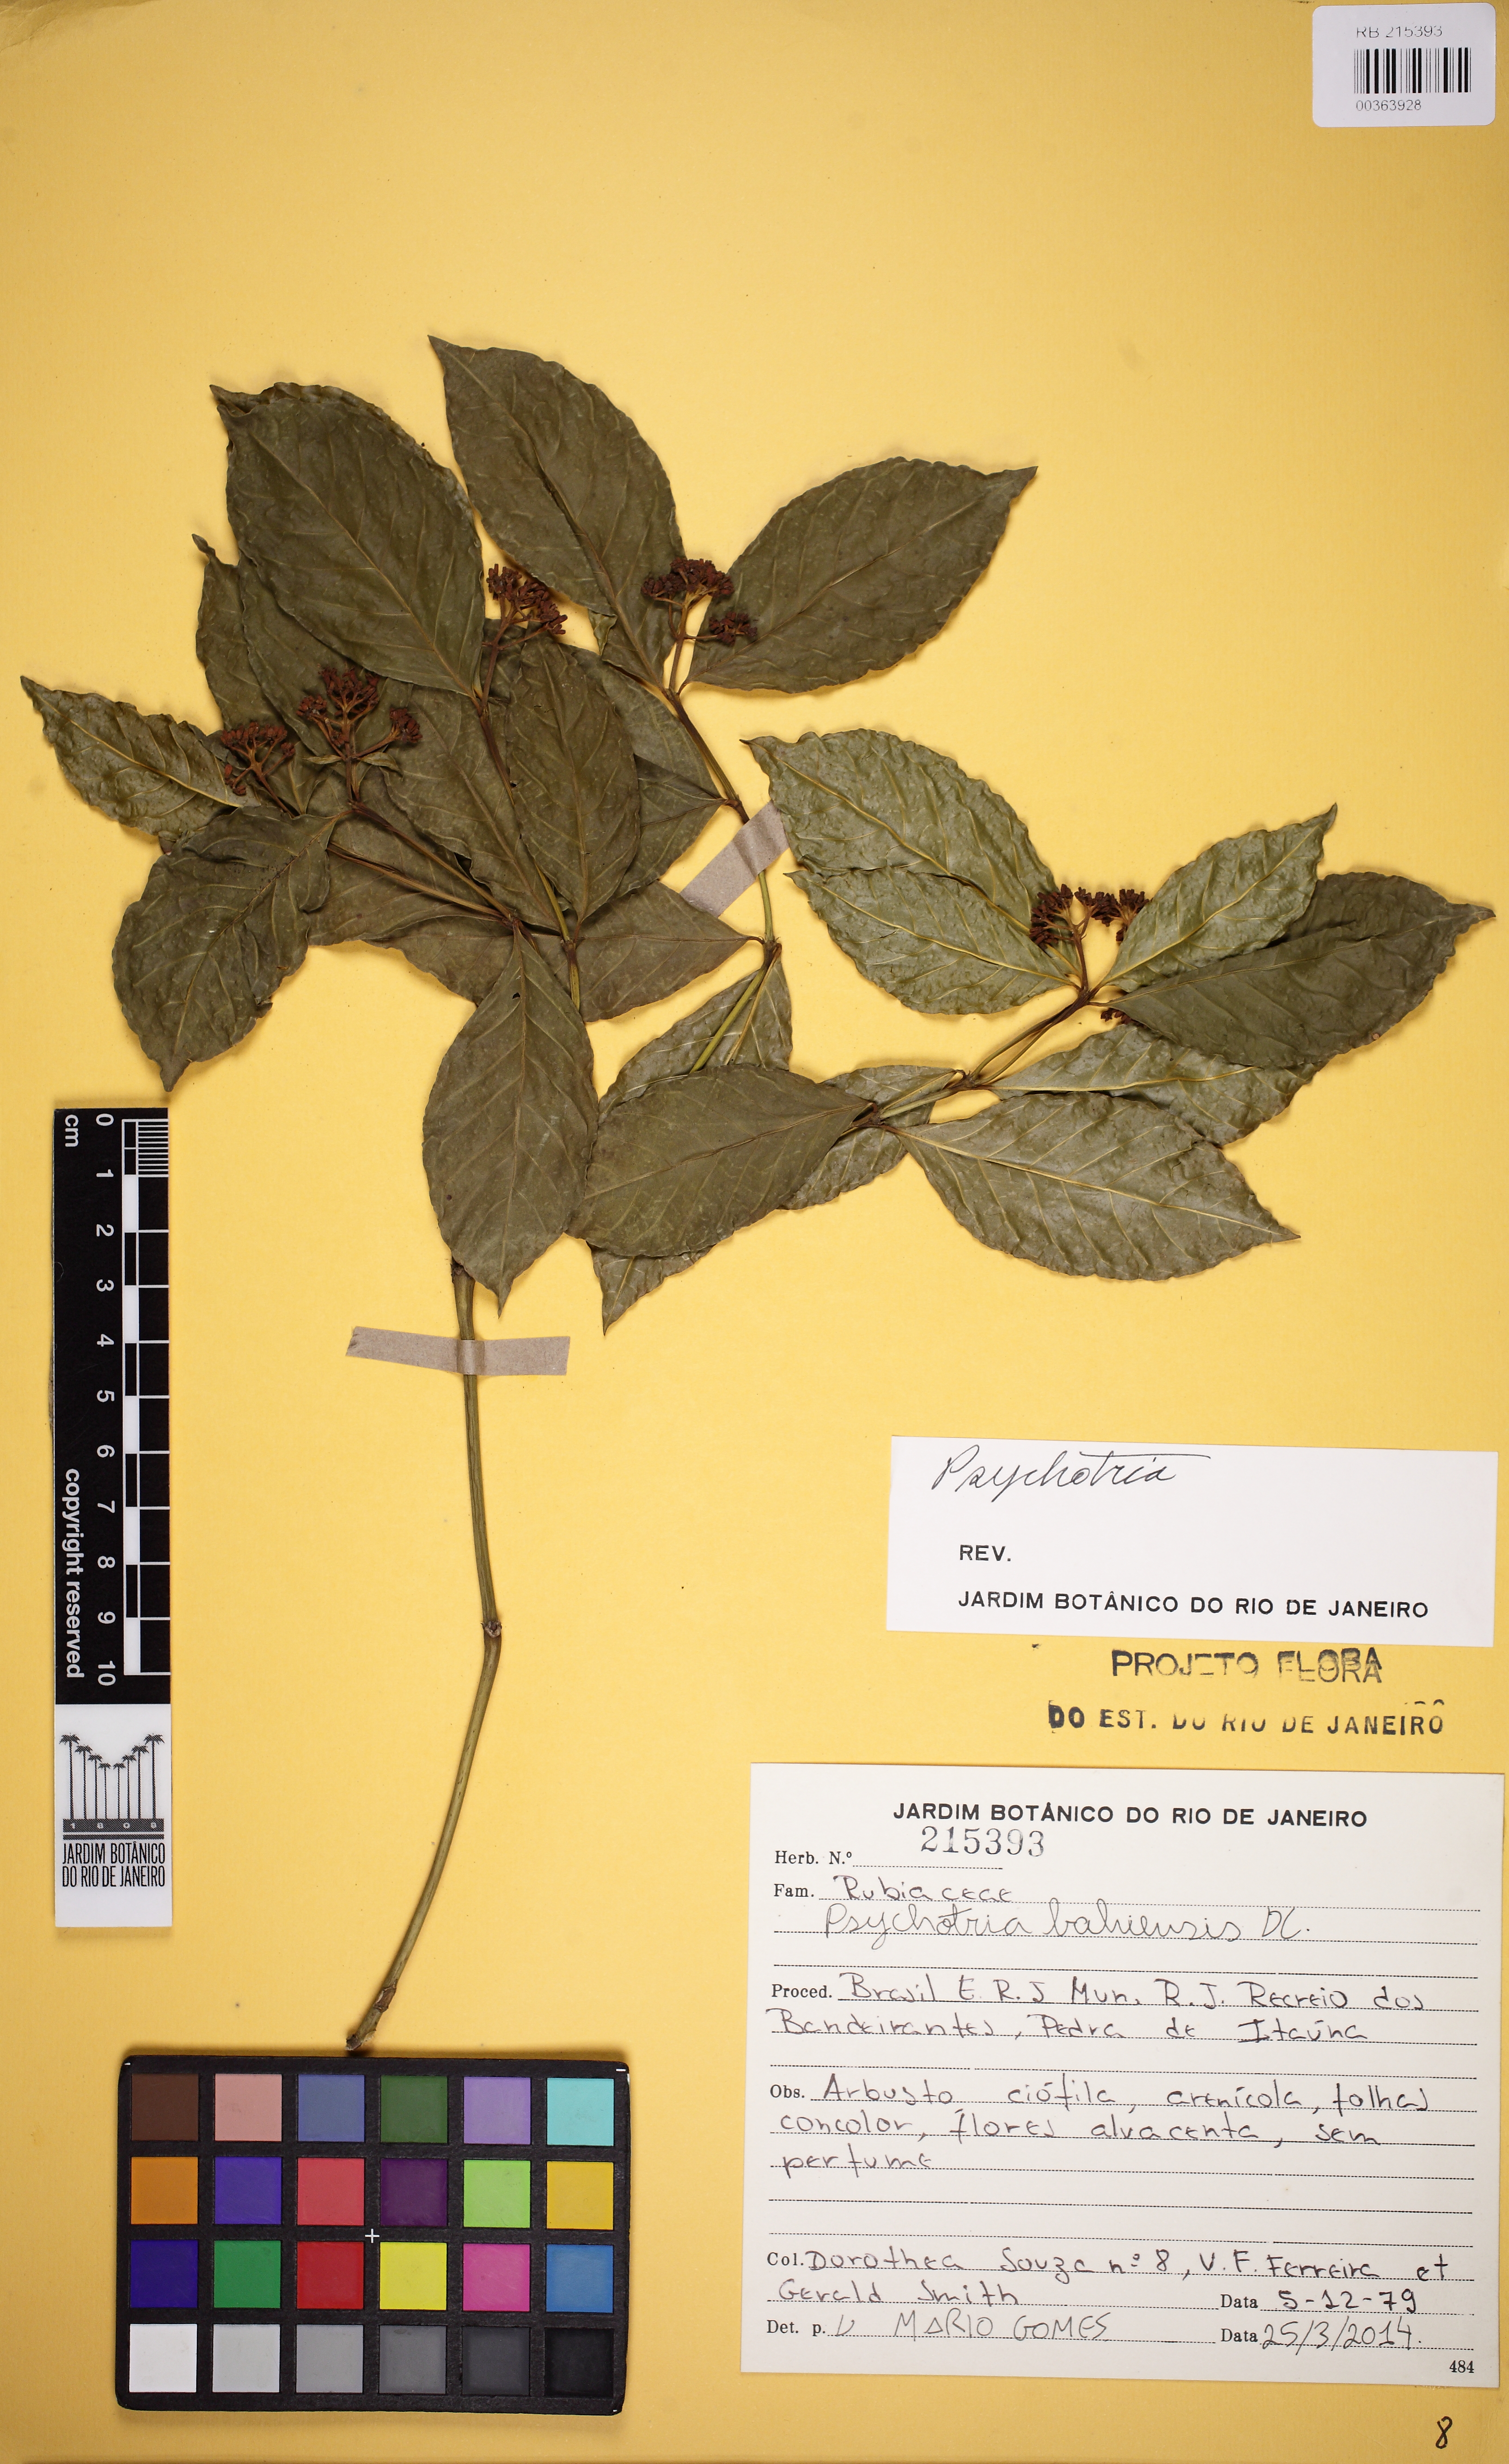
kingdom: Plantae
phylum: Tracheophyta
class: Magnoliopsida
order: Gentianales
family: Rubiaceae
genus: Psychotria
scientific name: Psychotria bahiensis
